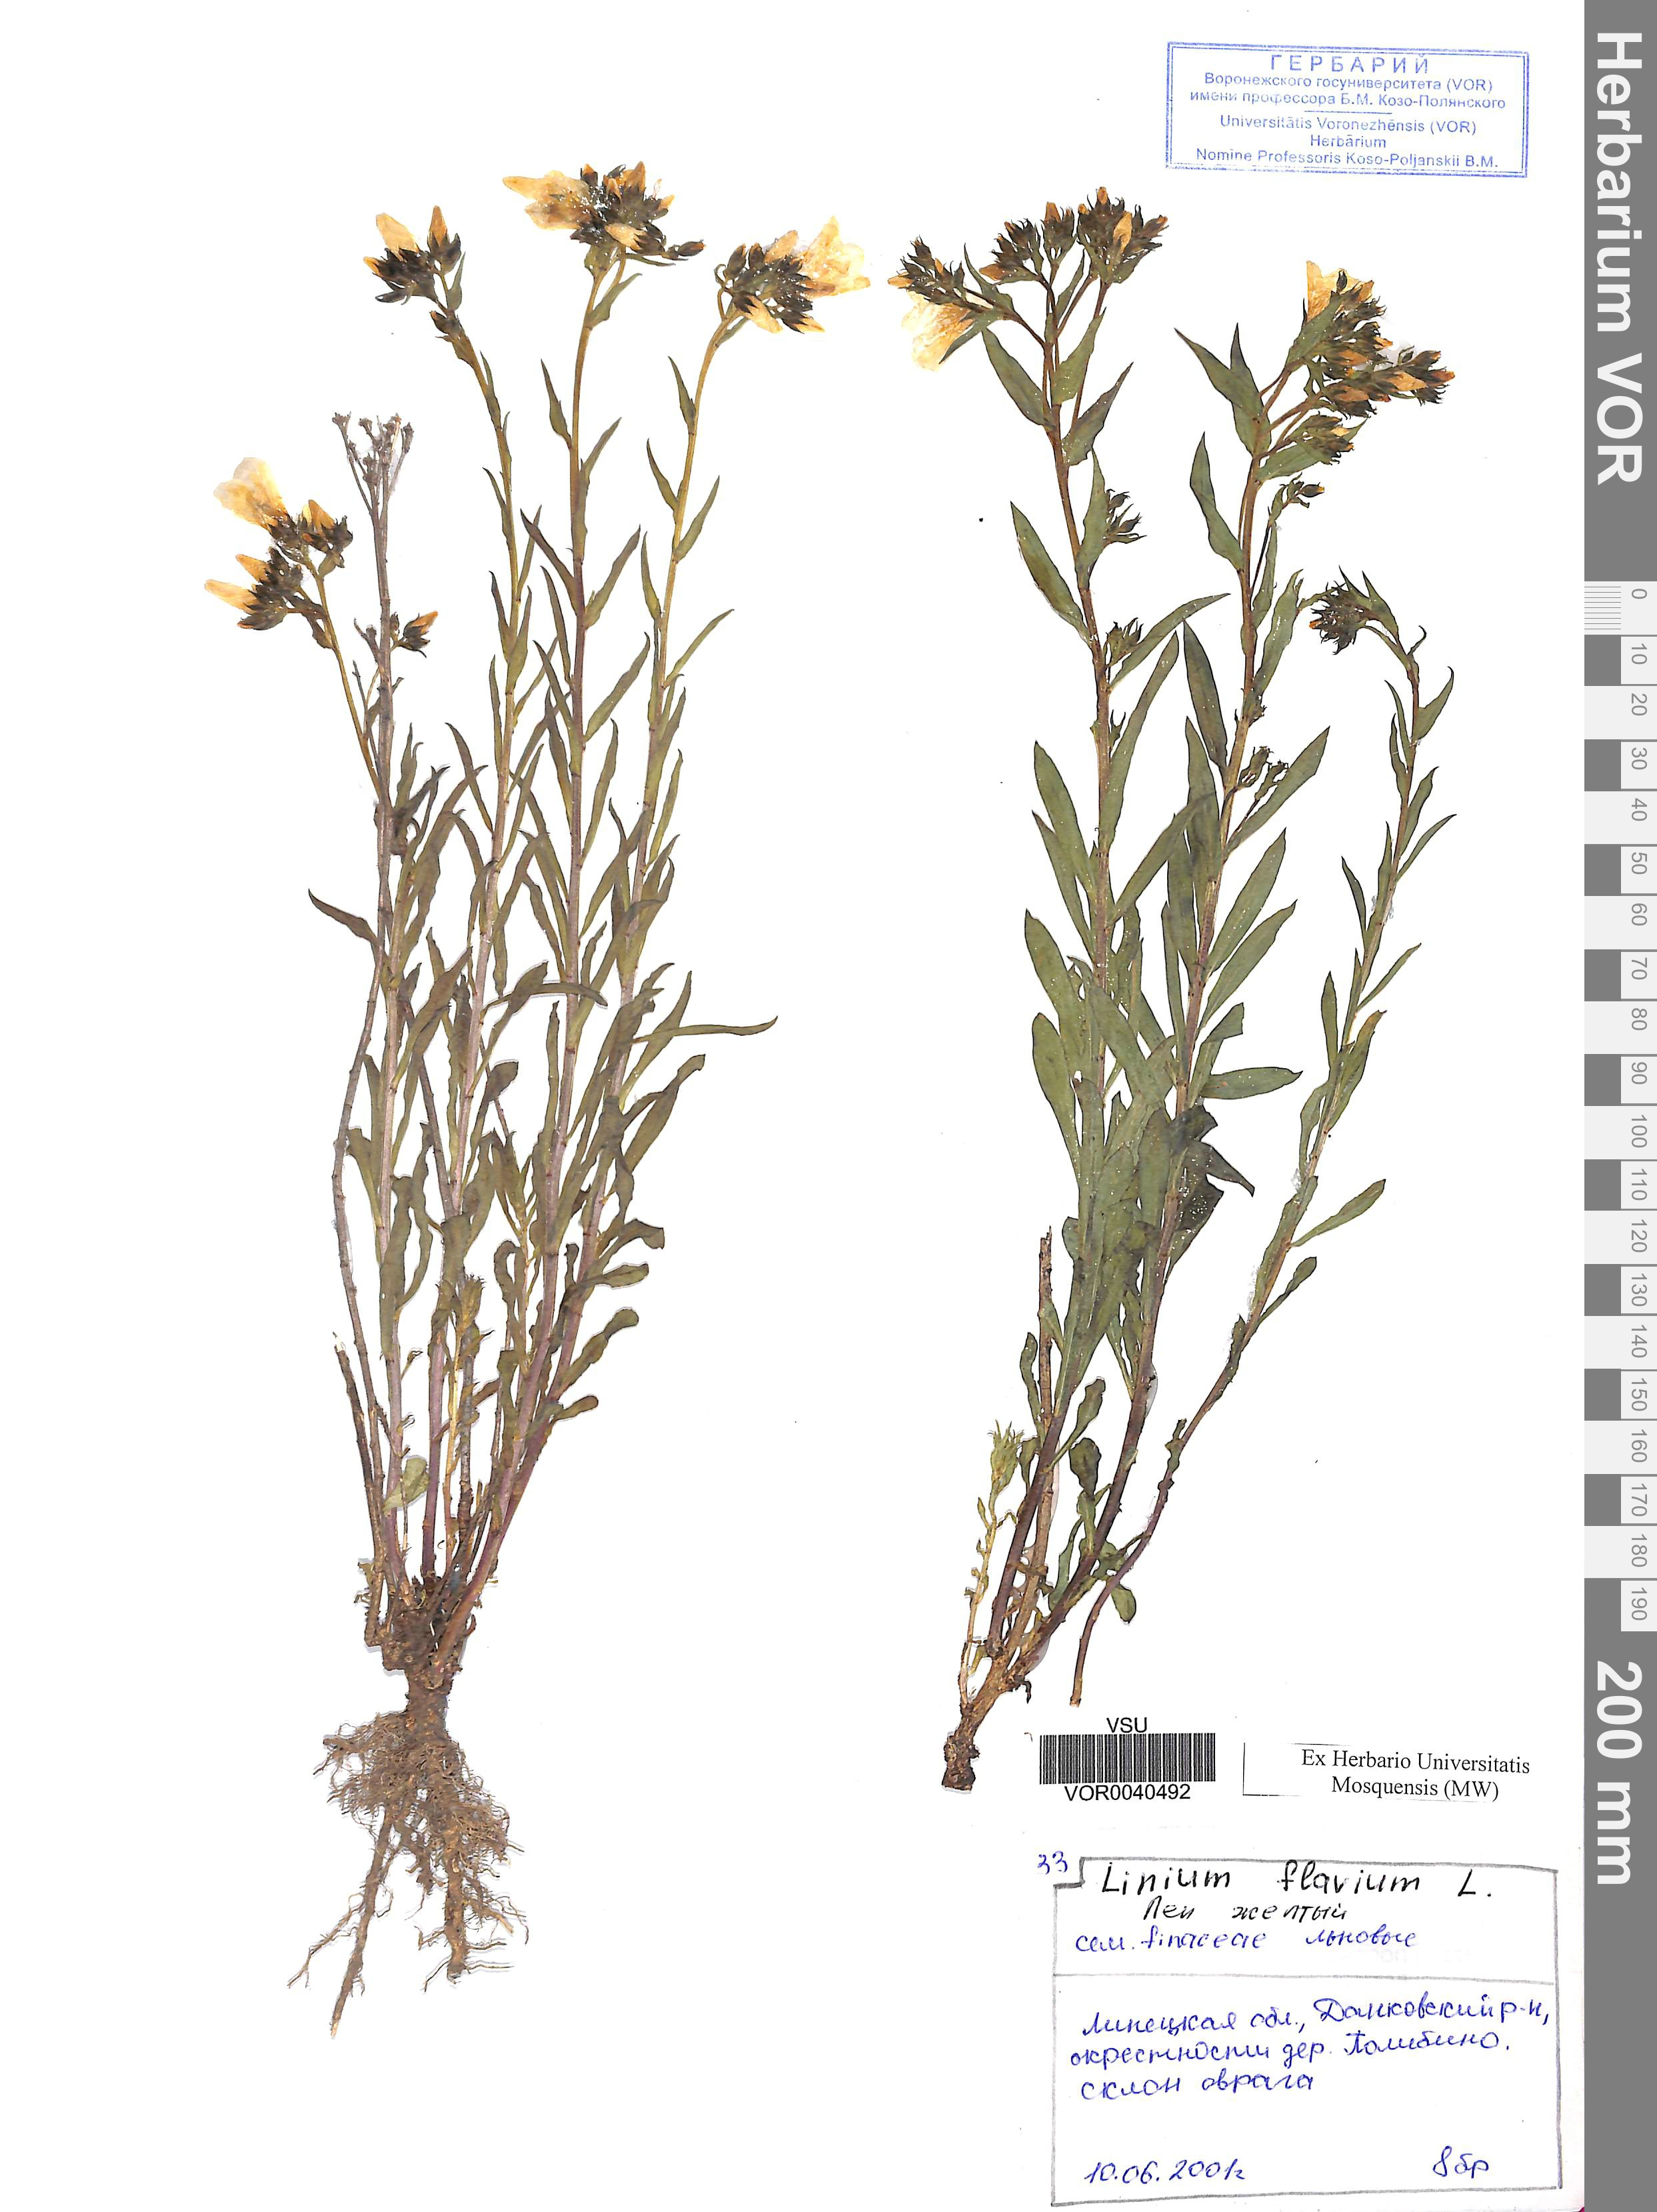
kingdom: Plantae
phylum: Tracheophyta
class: Magnoliopsida
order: Malpighiales
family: Linaceae
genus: Linum
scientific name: Linum flavum
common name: Yellow flax
